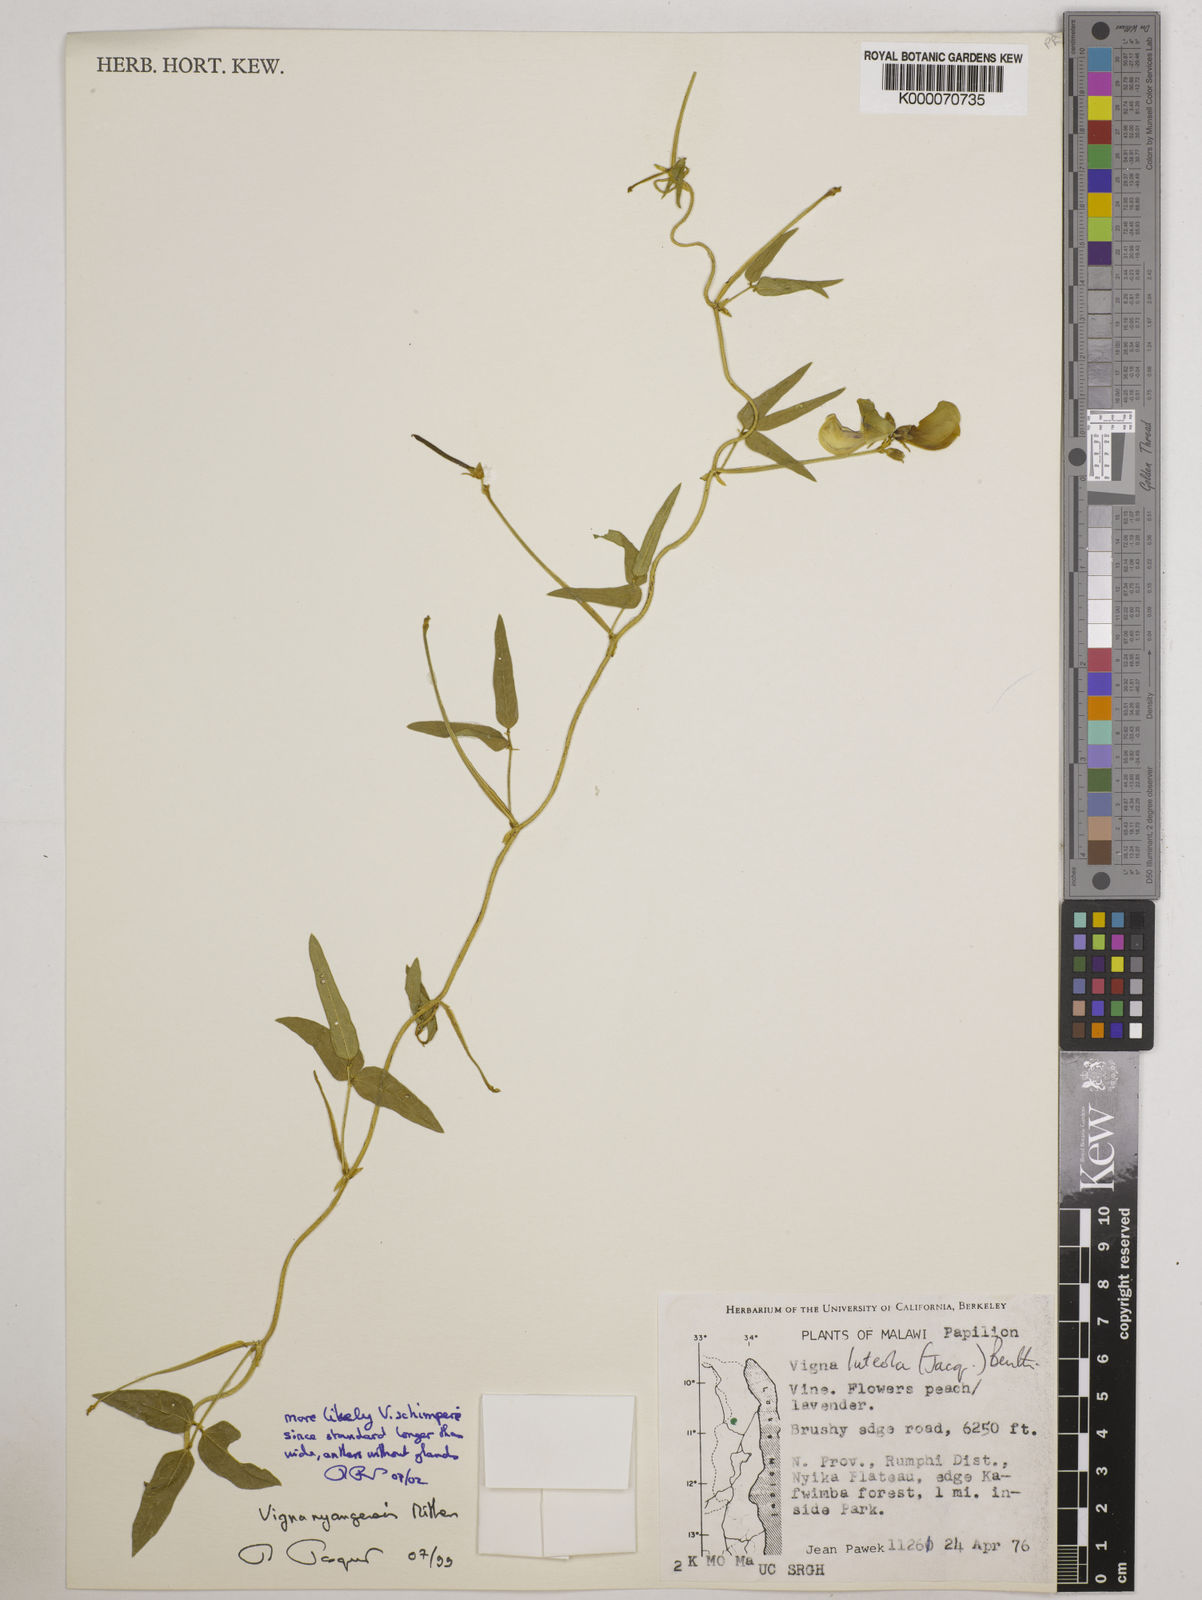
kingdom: Plantae
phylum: Tracheophyta
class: Magnoliopsida
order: Fabales
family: Fabaceae
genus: Vigna
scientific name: Vigna nyangensis
